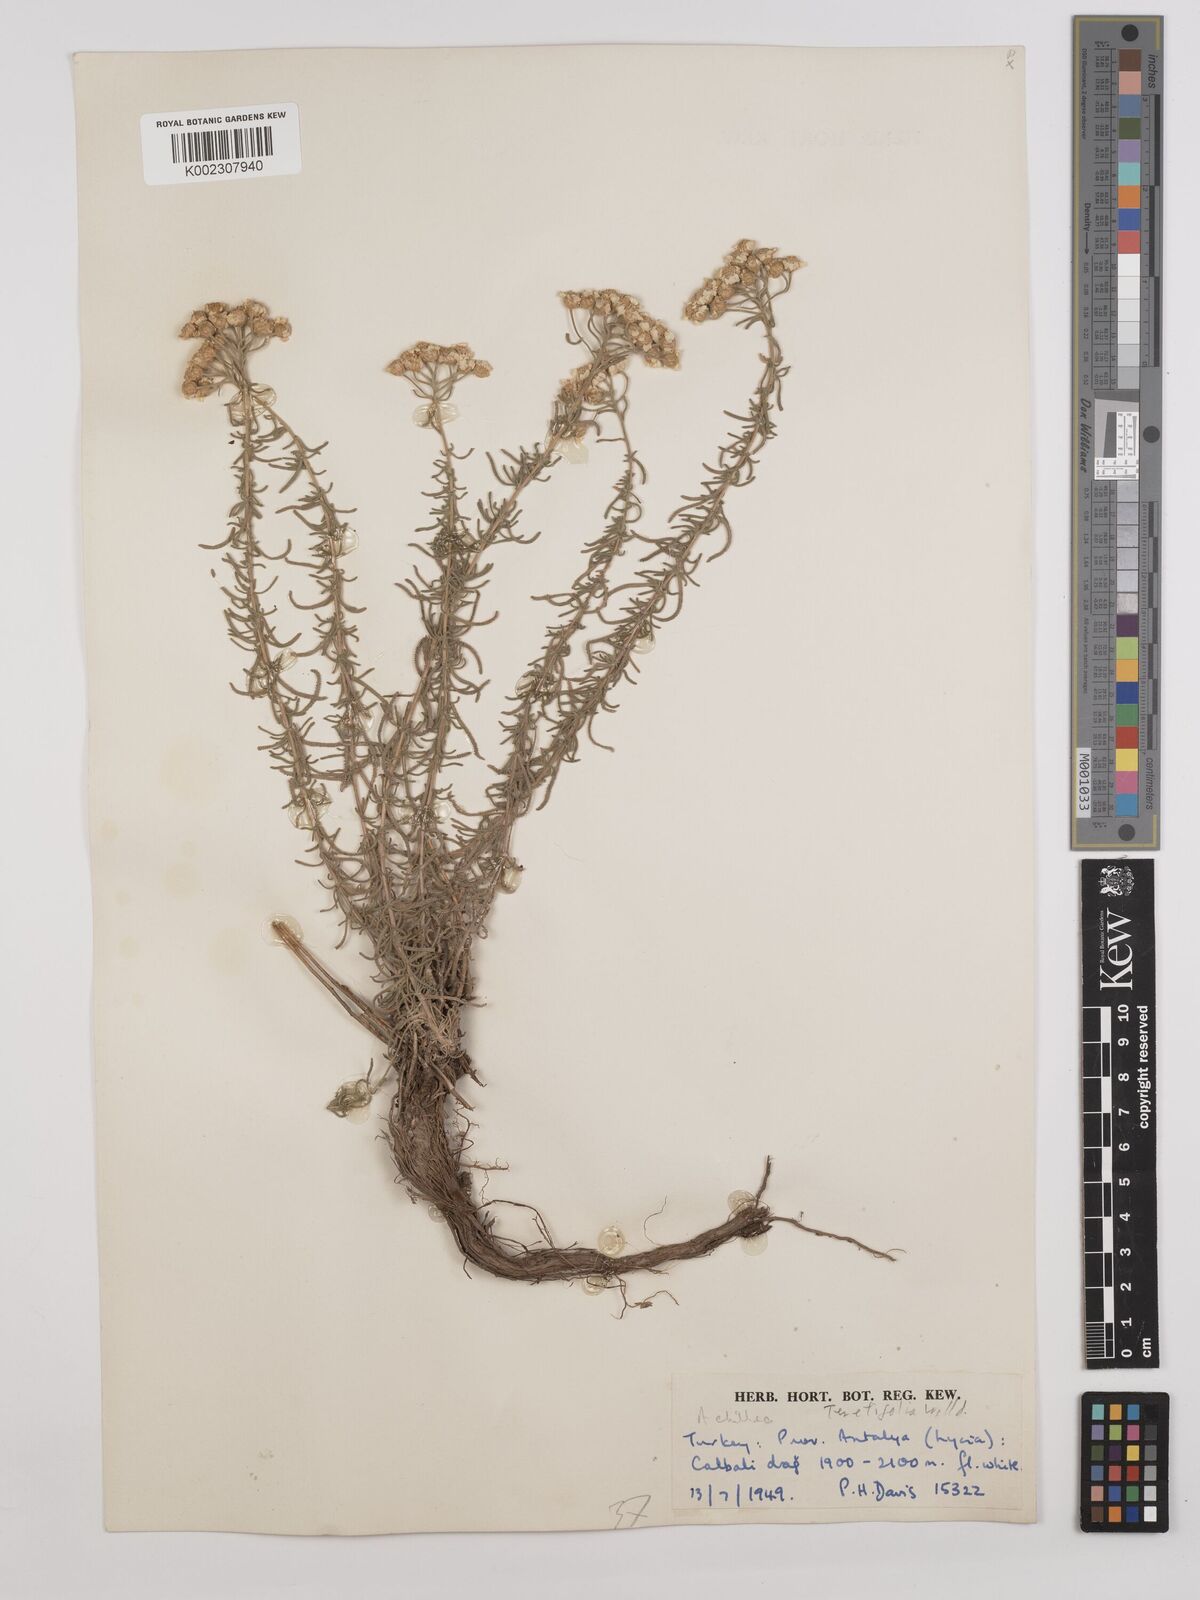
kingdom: Plantae
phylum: Tracheophyta
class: Magnoliopsida
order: Asterales
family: Asteraceae
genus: Achillea
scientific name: Achillea wilhelmsii
